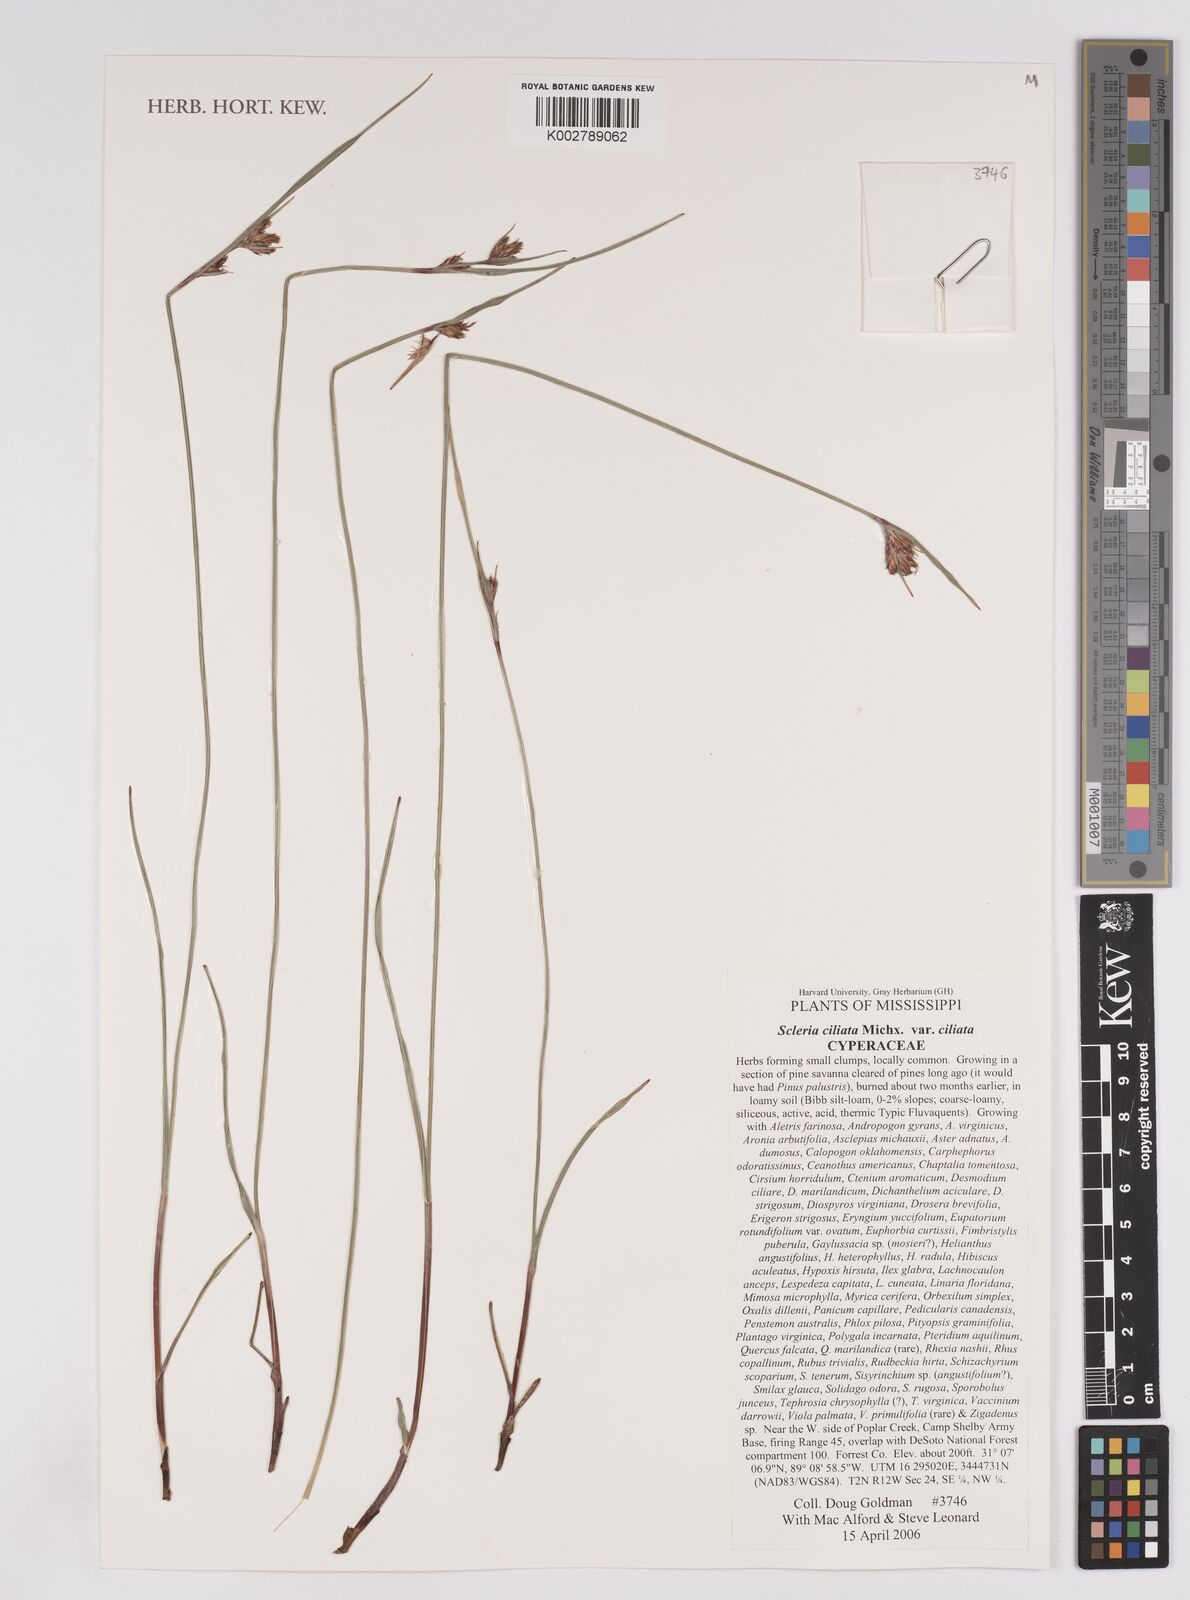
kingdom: Plantae
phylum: Tracheophyta
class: Liliopsida
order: Poales
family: Cyperaceae
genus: Scleria
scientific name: Scleria ciliata
